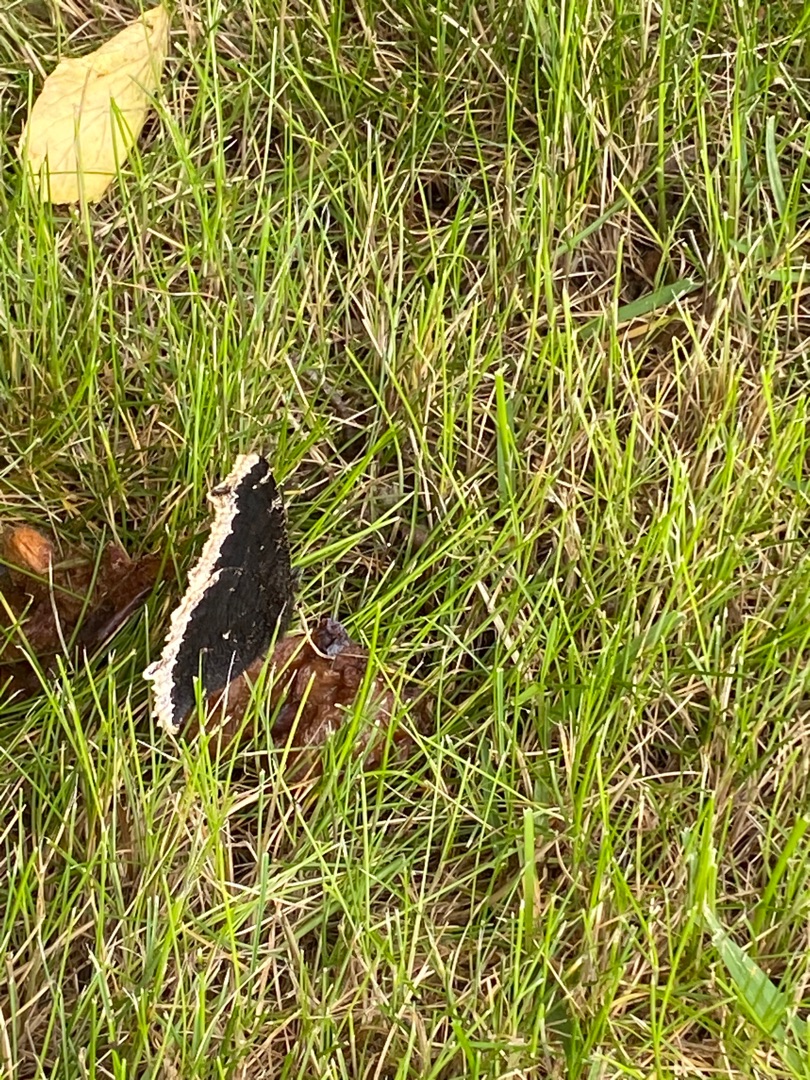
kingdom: Animalia
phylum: Arthropoda
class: Insecta
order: Lepidoptera
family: Nymphalidae
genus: Nymphalis
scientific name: Nymphalis antiopa
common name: Sørgekåbe
